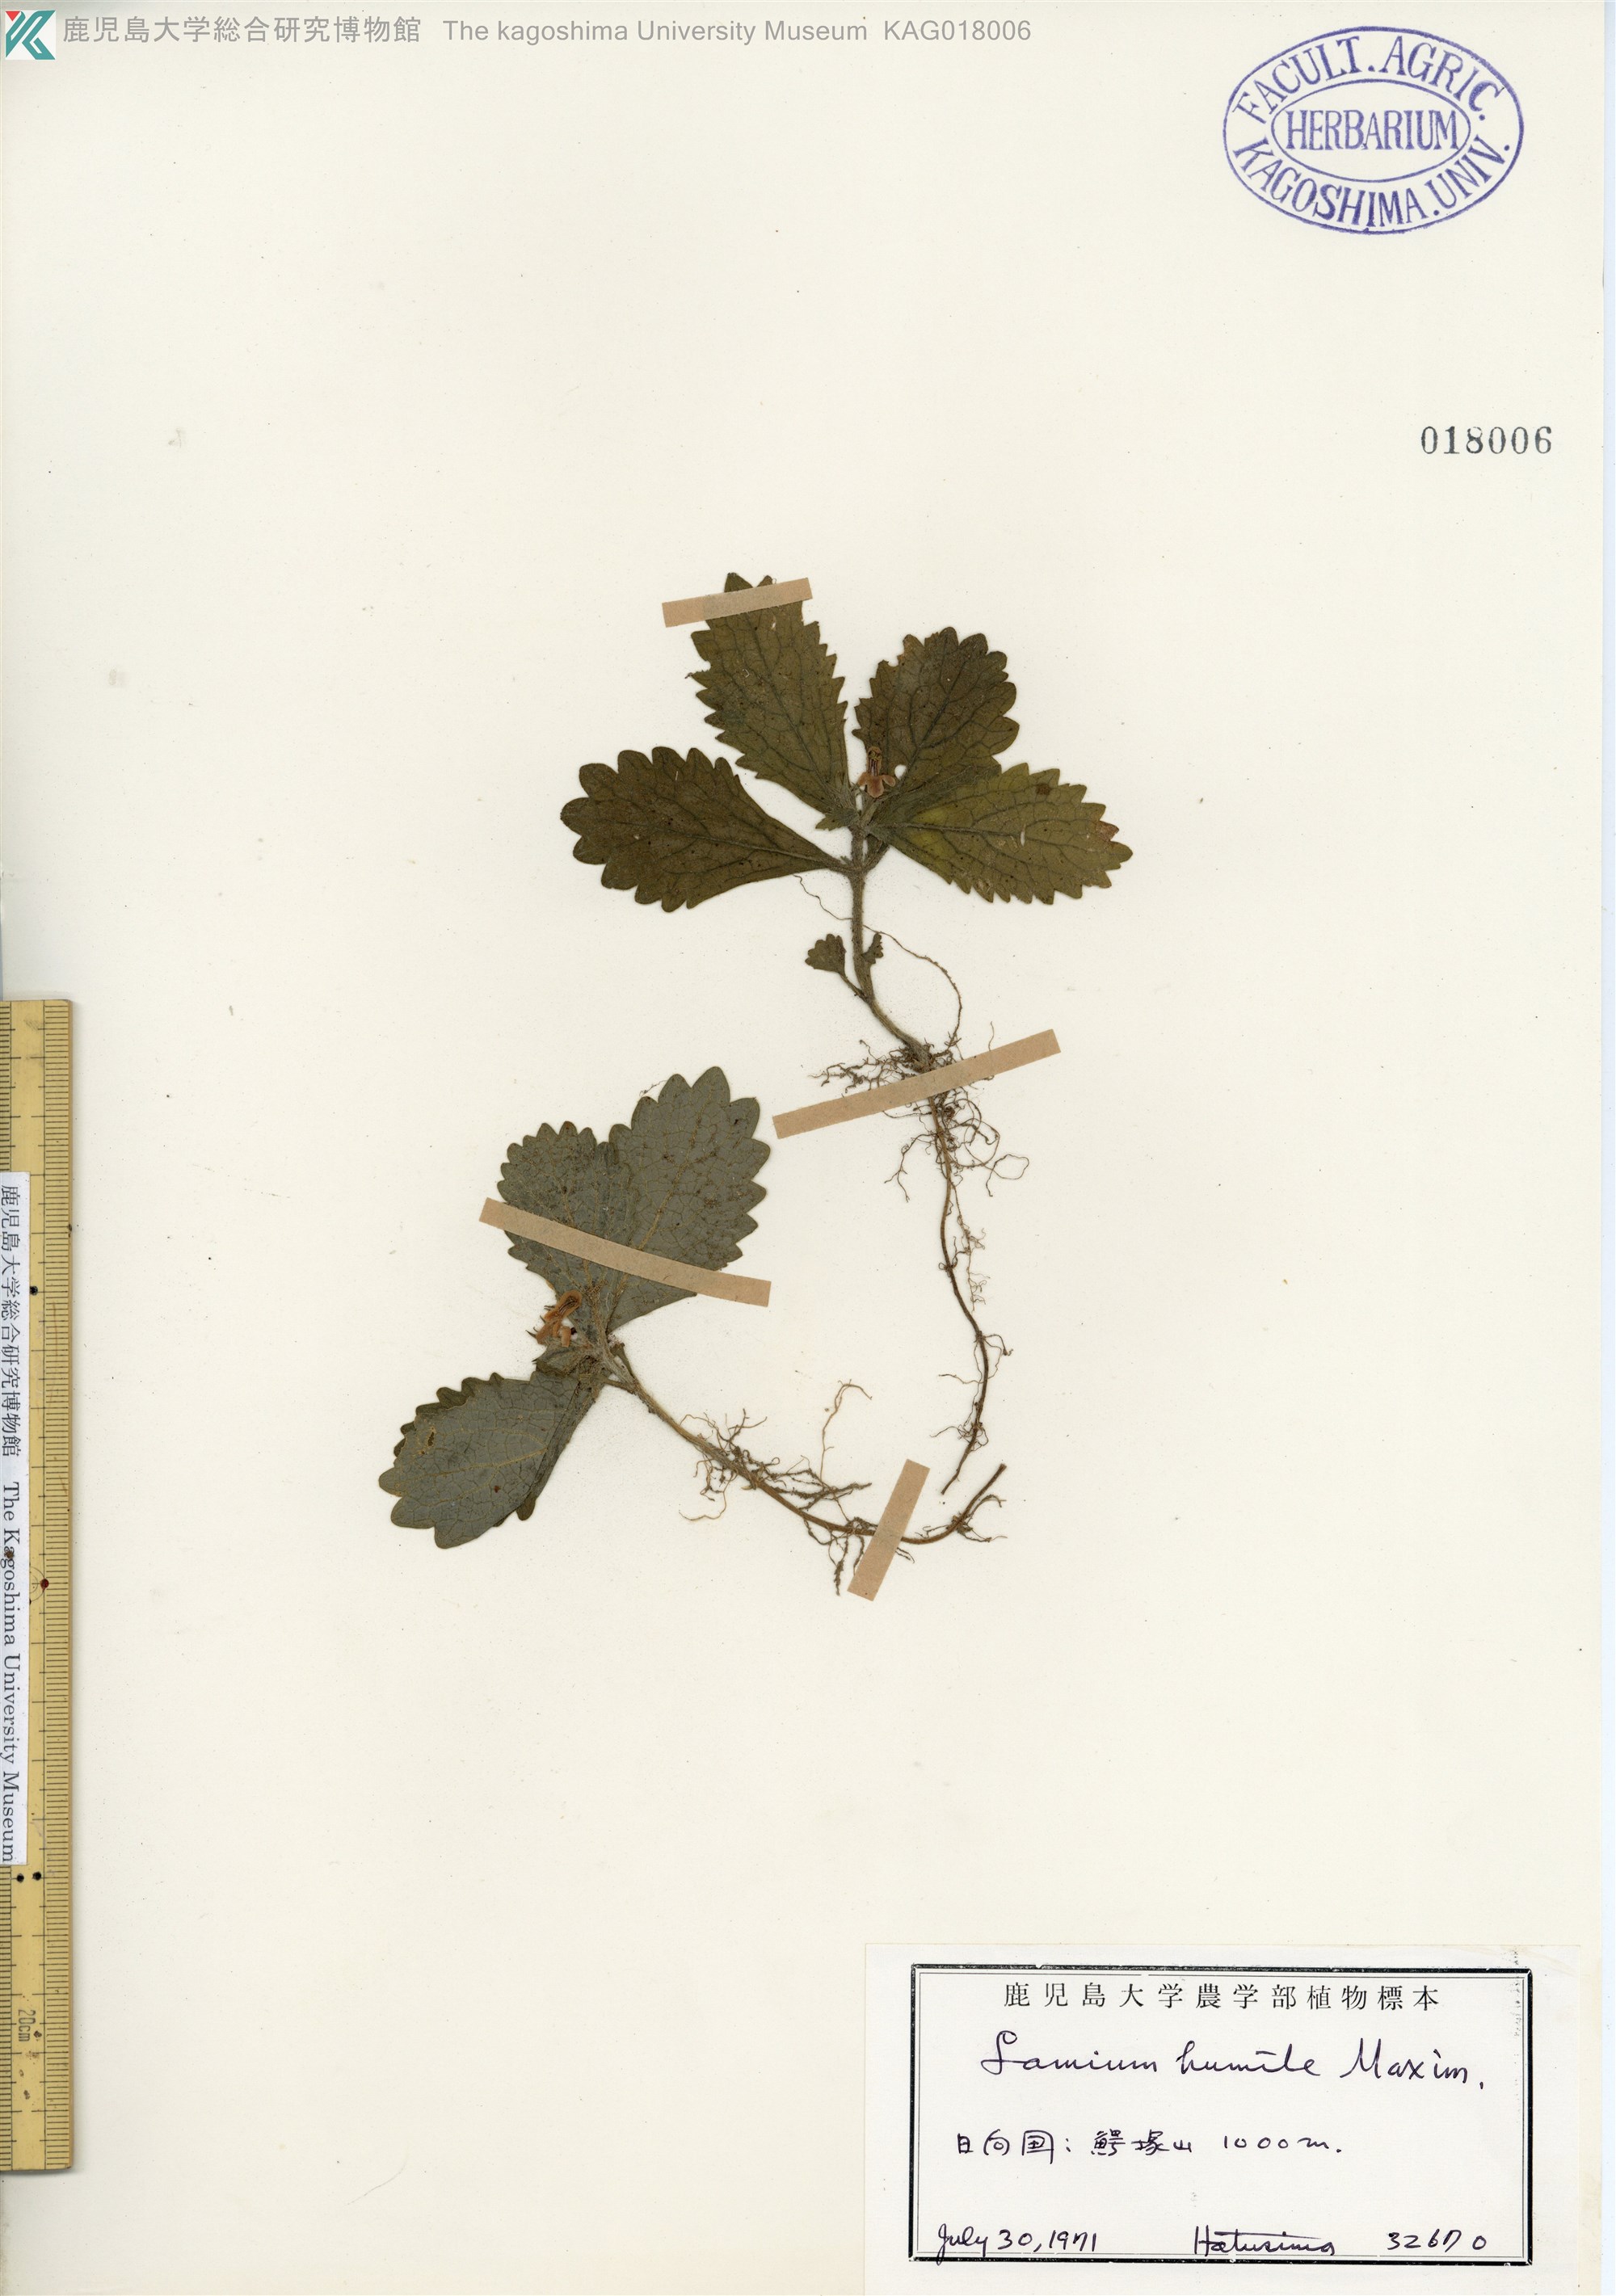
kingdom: Plantae
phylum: Tracheophyta
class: Magnoliopsida
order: Lamiales
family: Lamiaceae
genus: Ajugoides
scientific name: Ajugoides humilis
